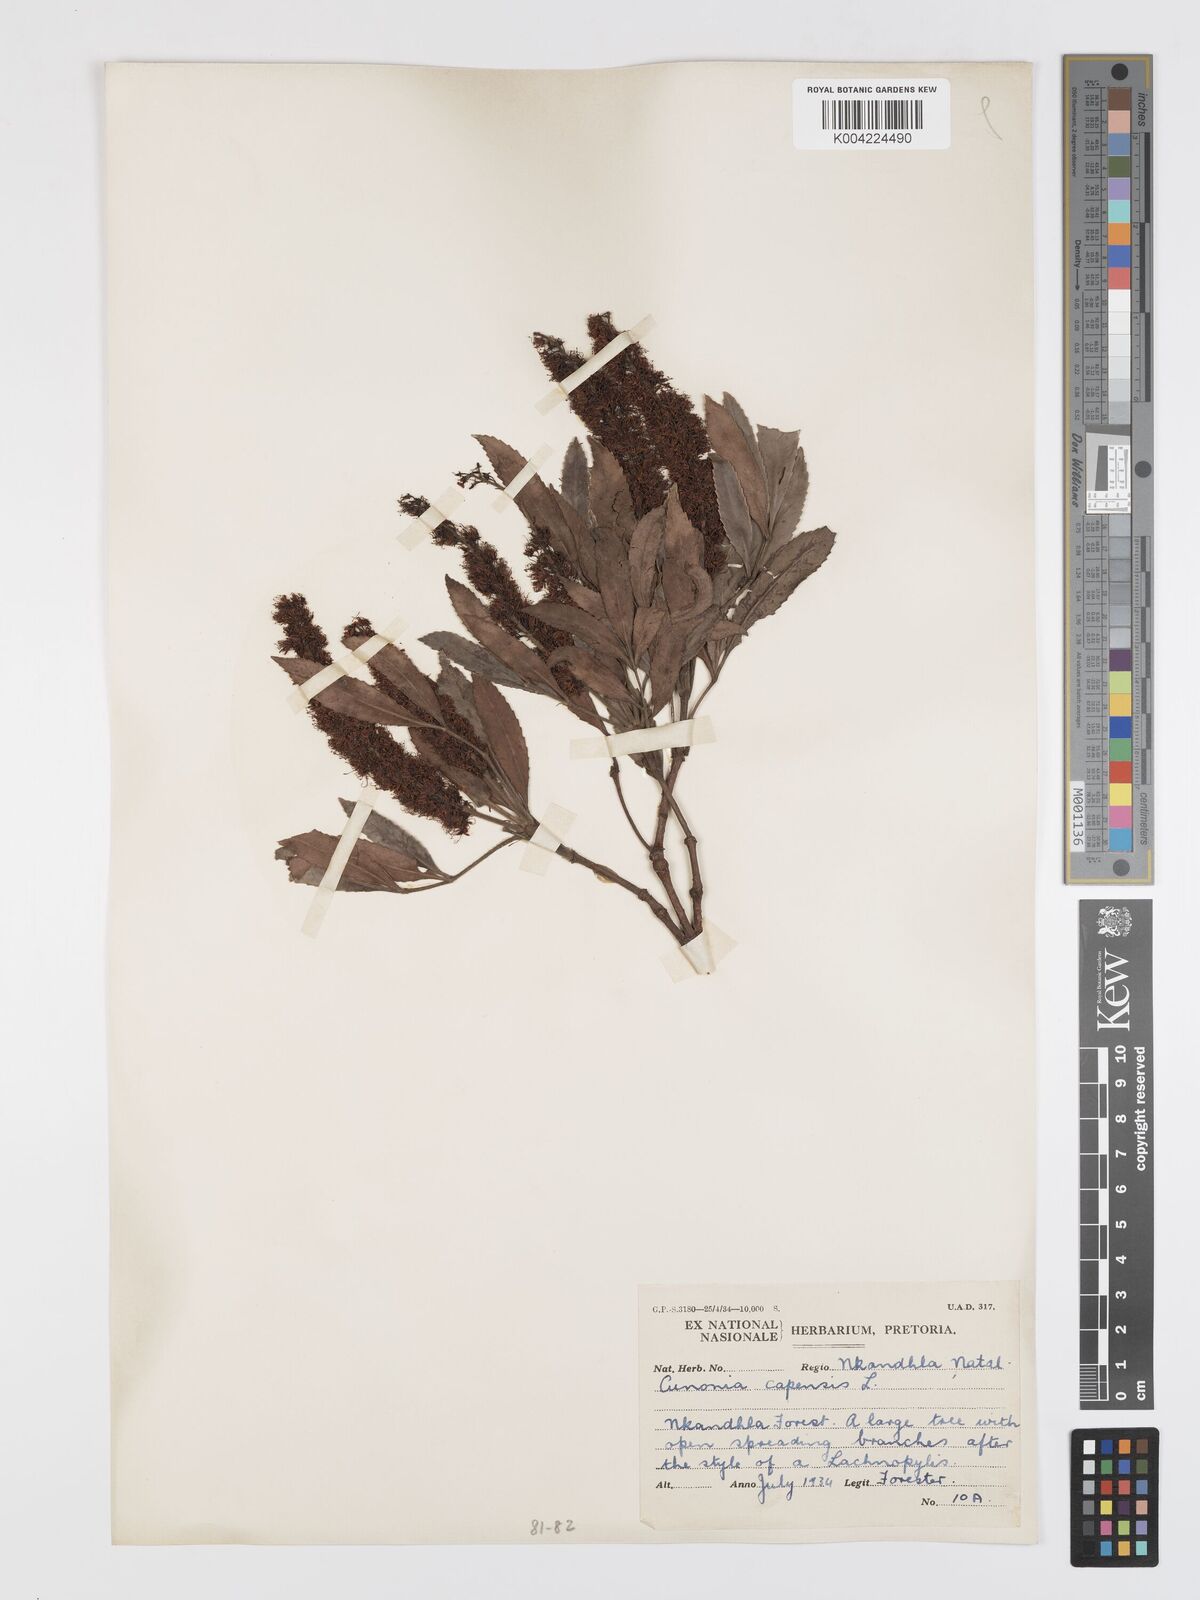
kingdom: Plantae
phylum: Tracheophyta
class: Magnoliopsida
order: Oxalidales
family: Cunoniaceae
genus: Cunonia
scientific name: Cunonia capensis
